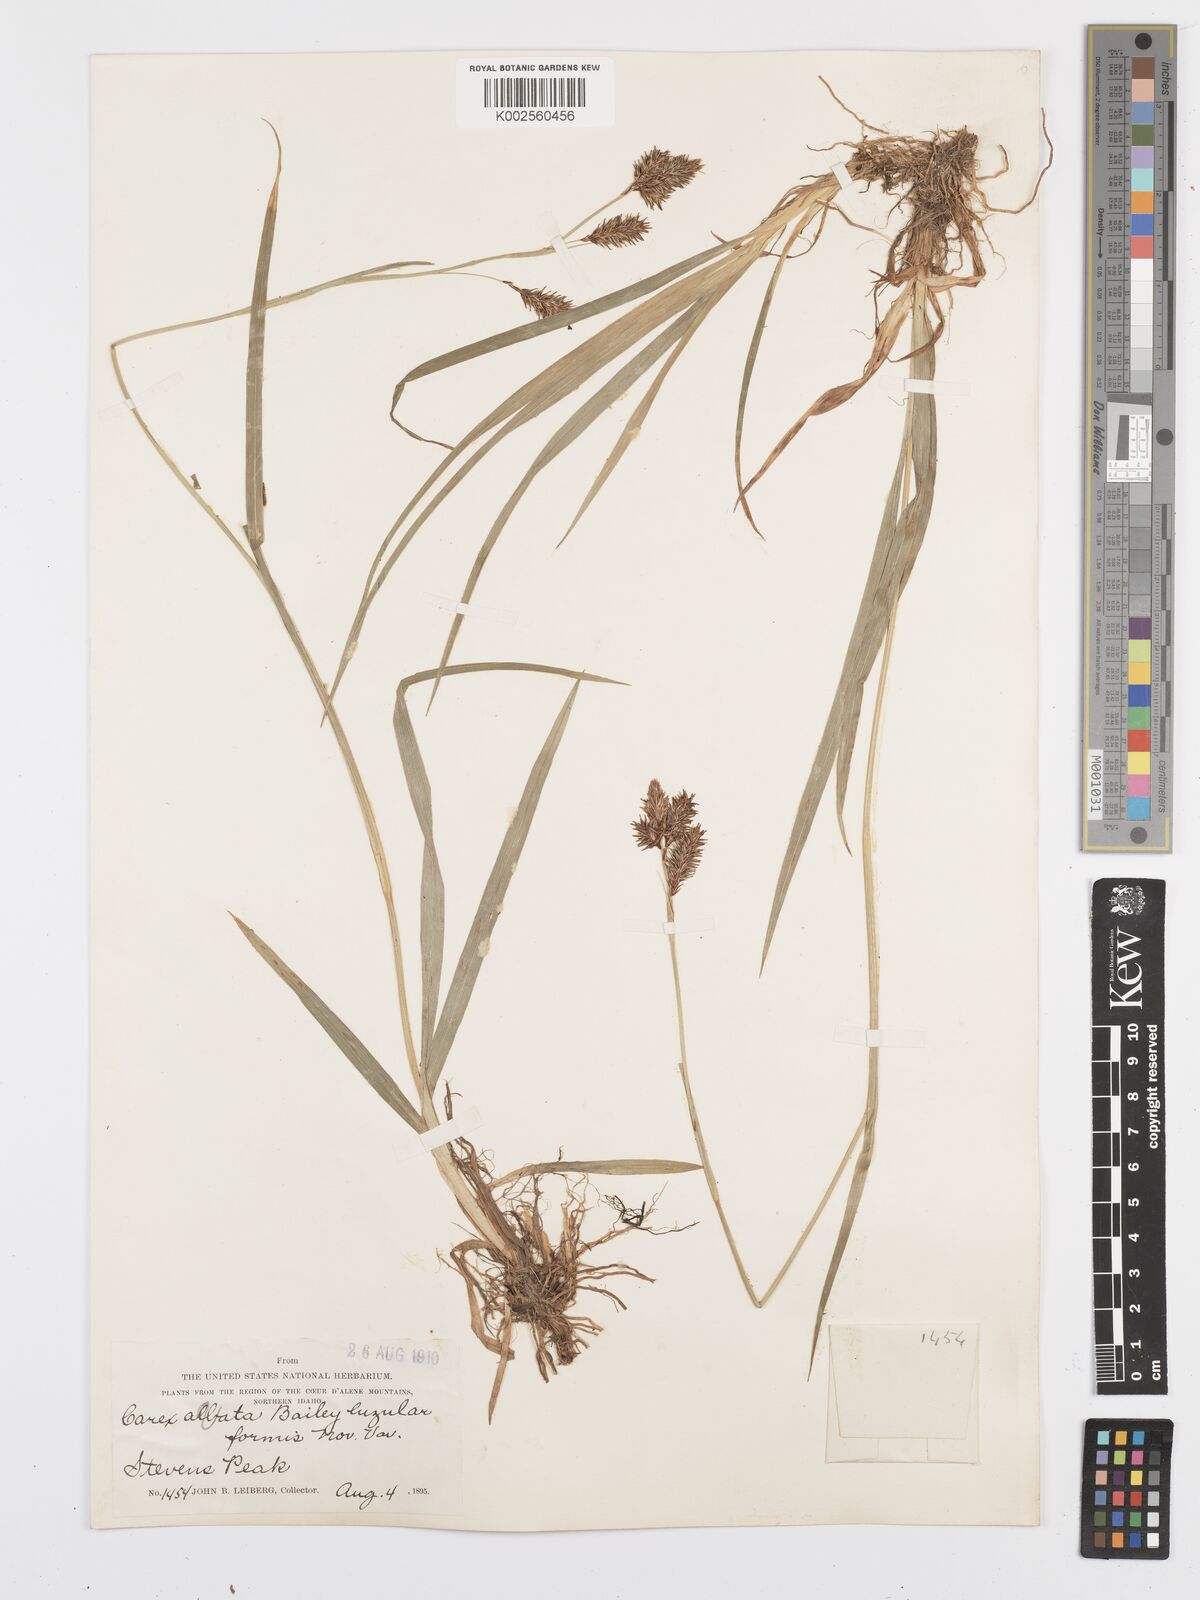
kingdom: Plantae
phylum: Tracheophyta
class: Liliopsida
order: Poales
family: Cyperaceae
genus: Carex
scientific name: Carex fissuricola
